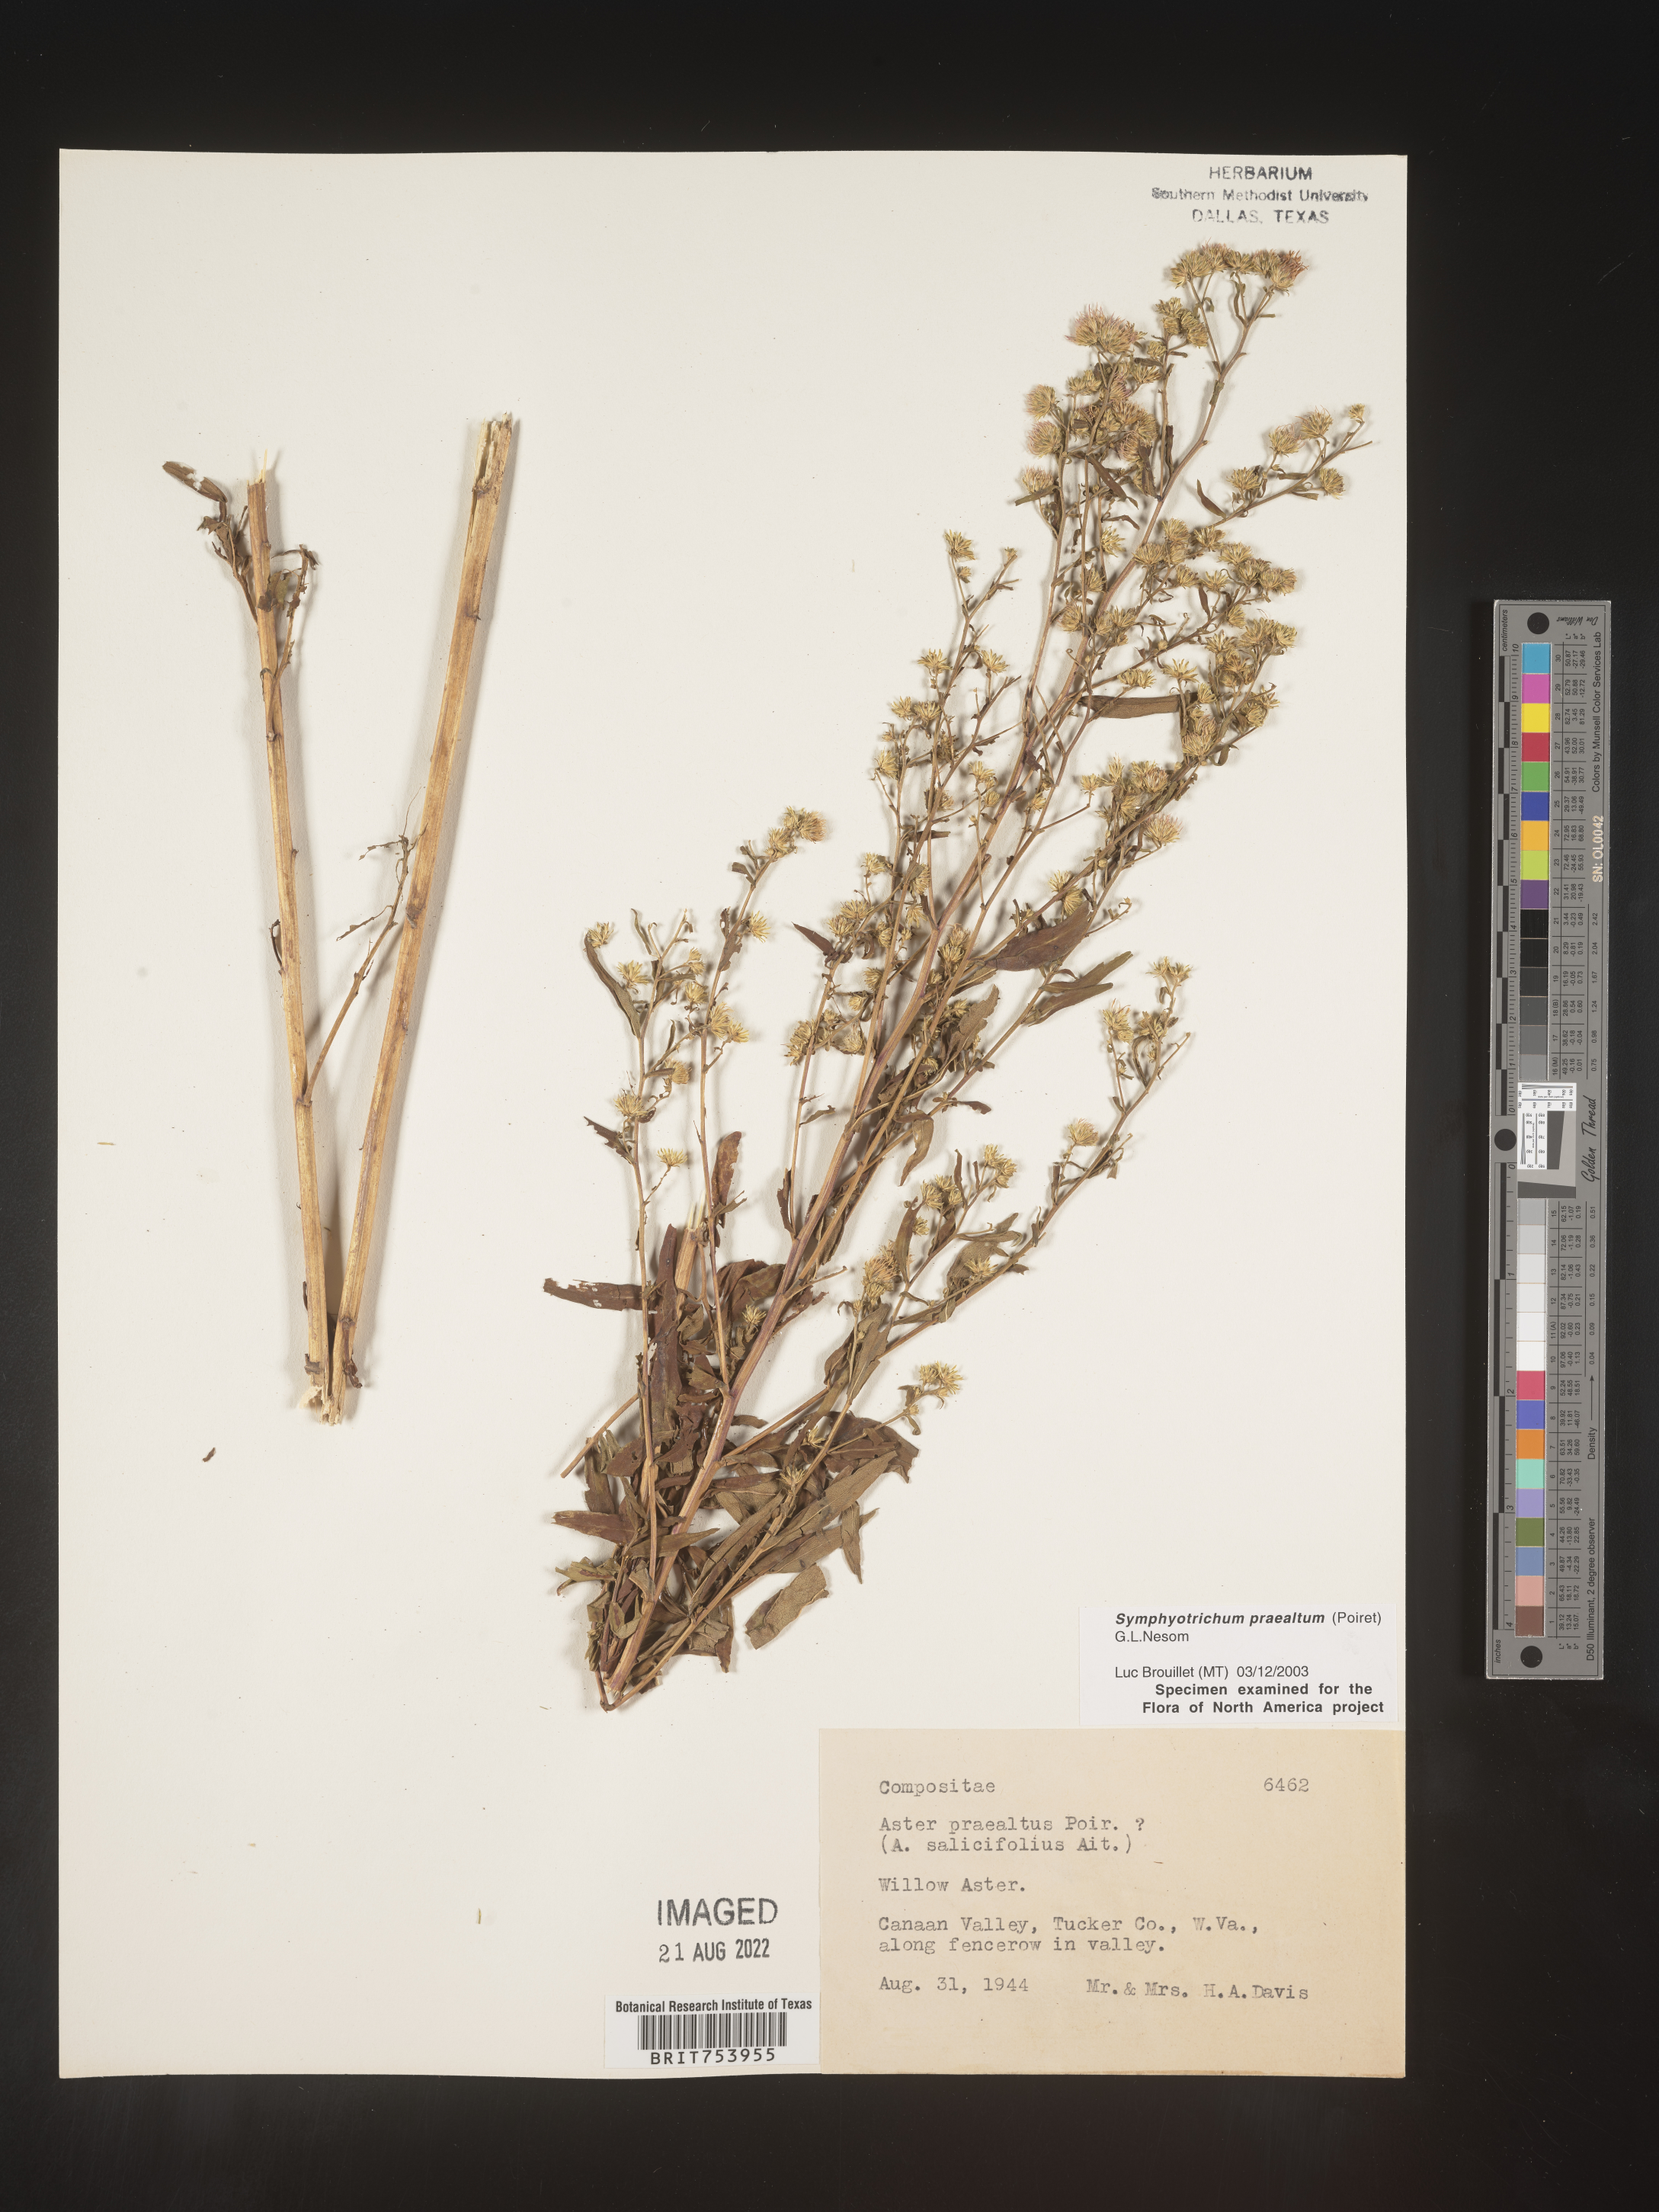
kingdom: Plantae
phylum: Tracheophyta
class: Magnoliopsida
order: Asterales
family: Asteraceae
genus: Symphyotrichum
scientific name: Symphyotrichum praealtum
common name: Willow aster
